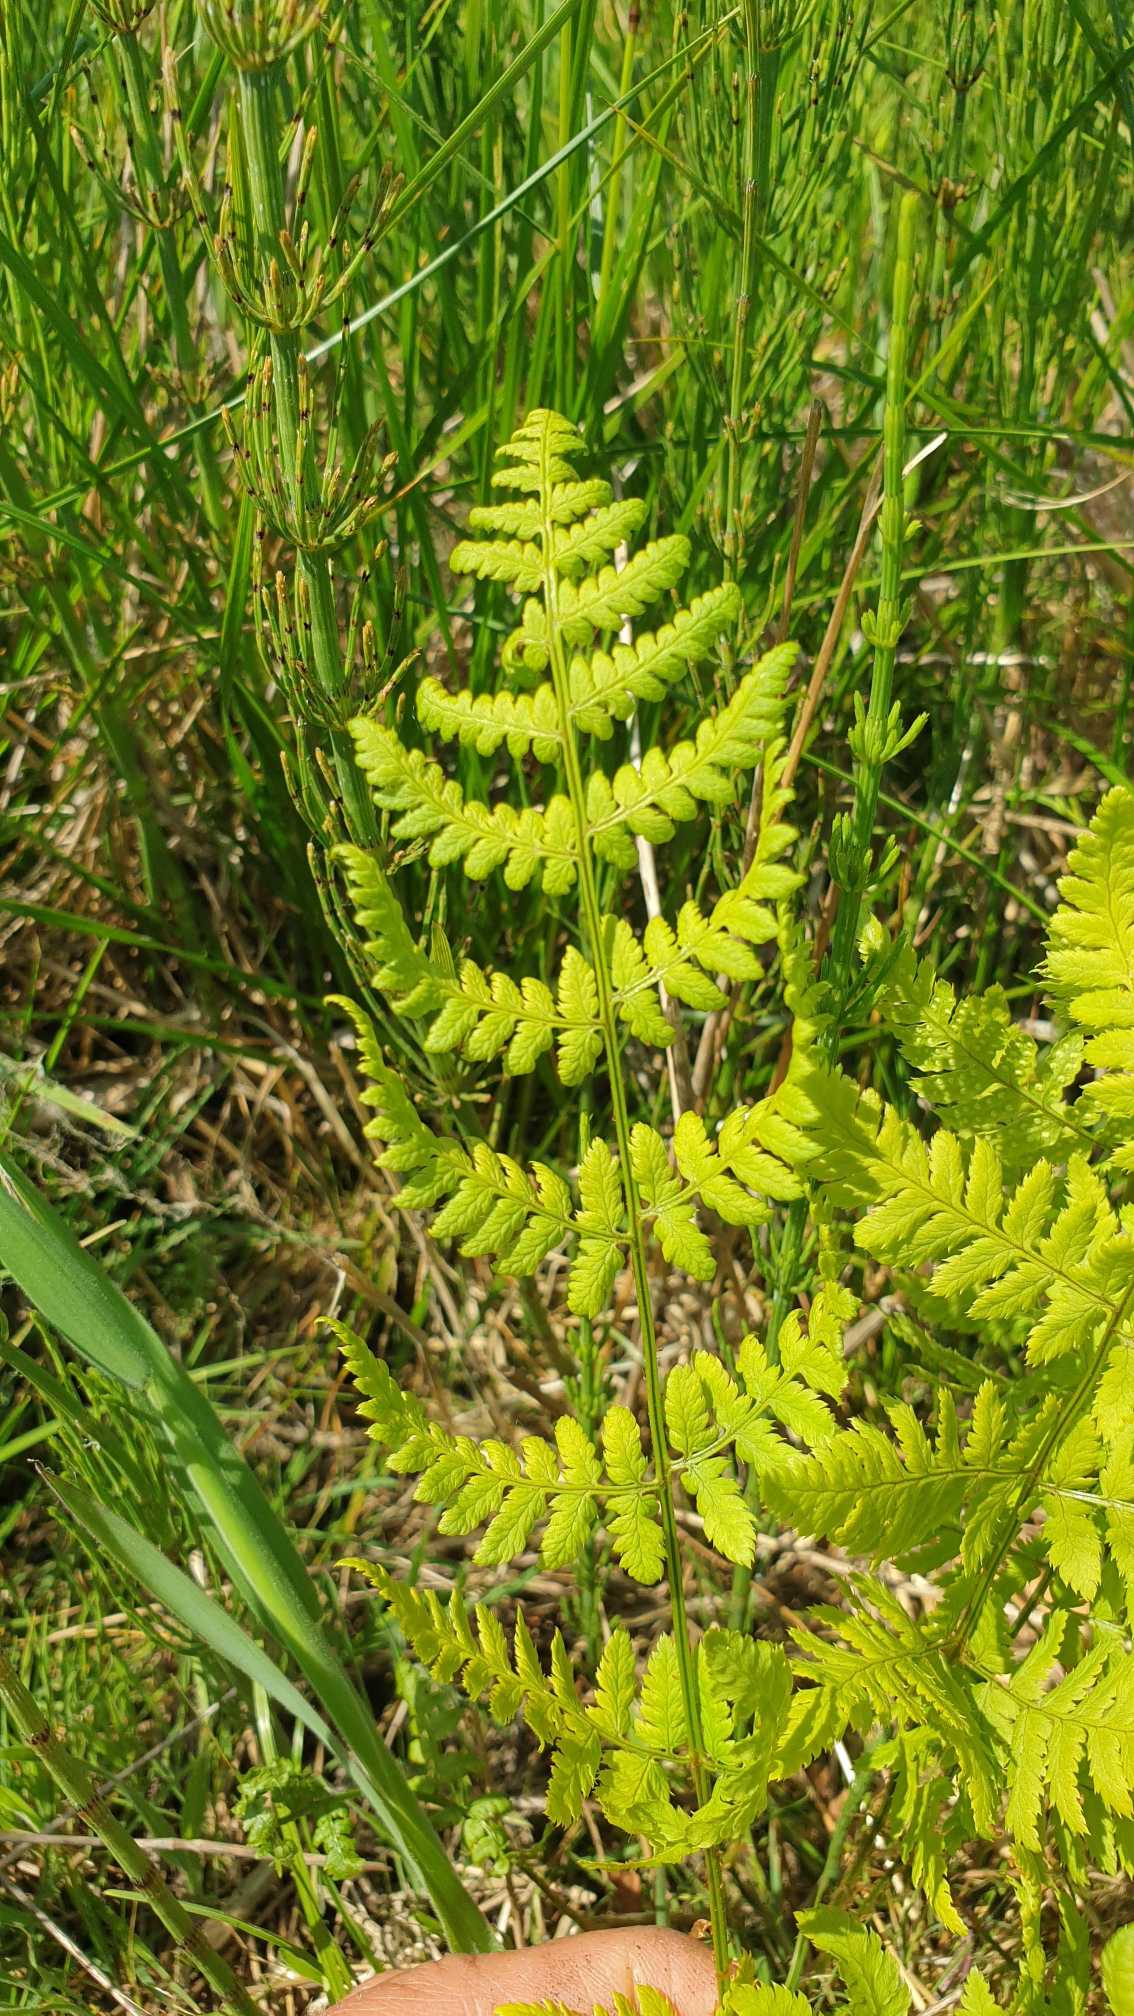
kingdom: Plantae
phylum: Tracheophyta
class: Polypodiopsida
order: Polypodiales
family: Dryopteridaceae
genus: Dryopteris
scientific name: Dryopteris carthusiana
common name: Smalbladet mangeløv
